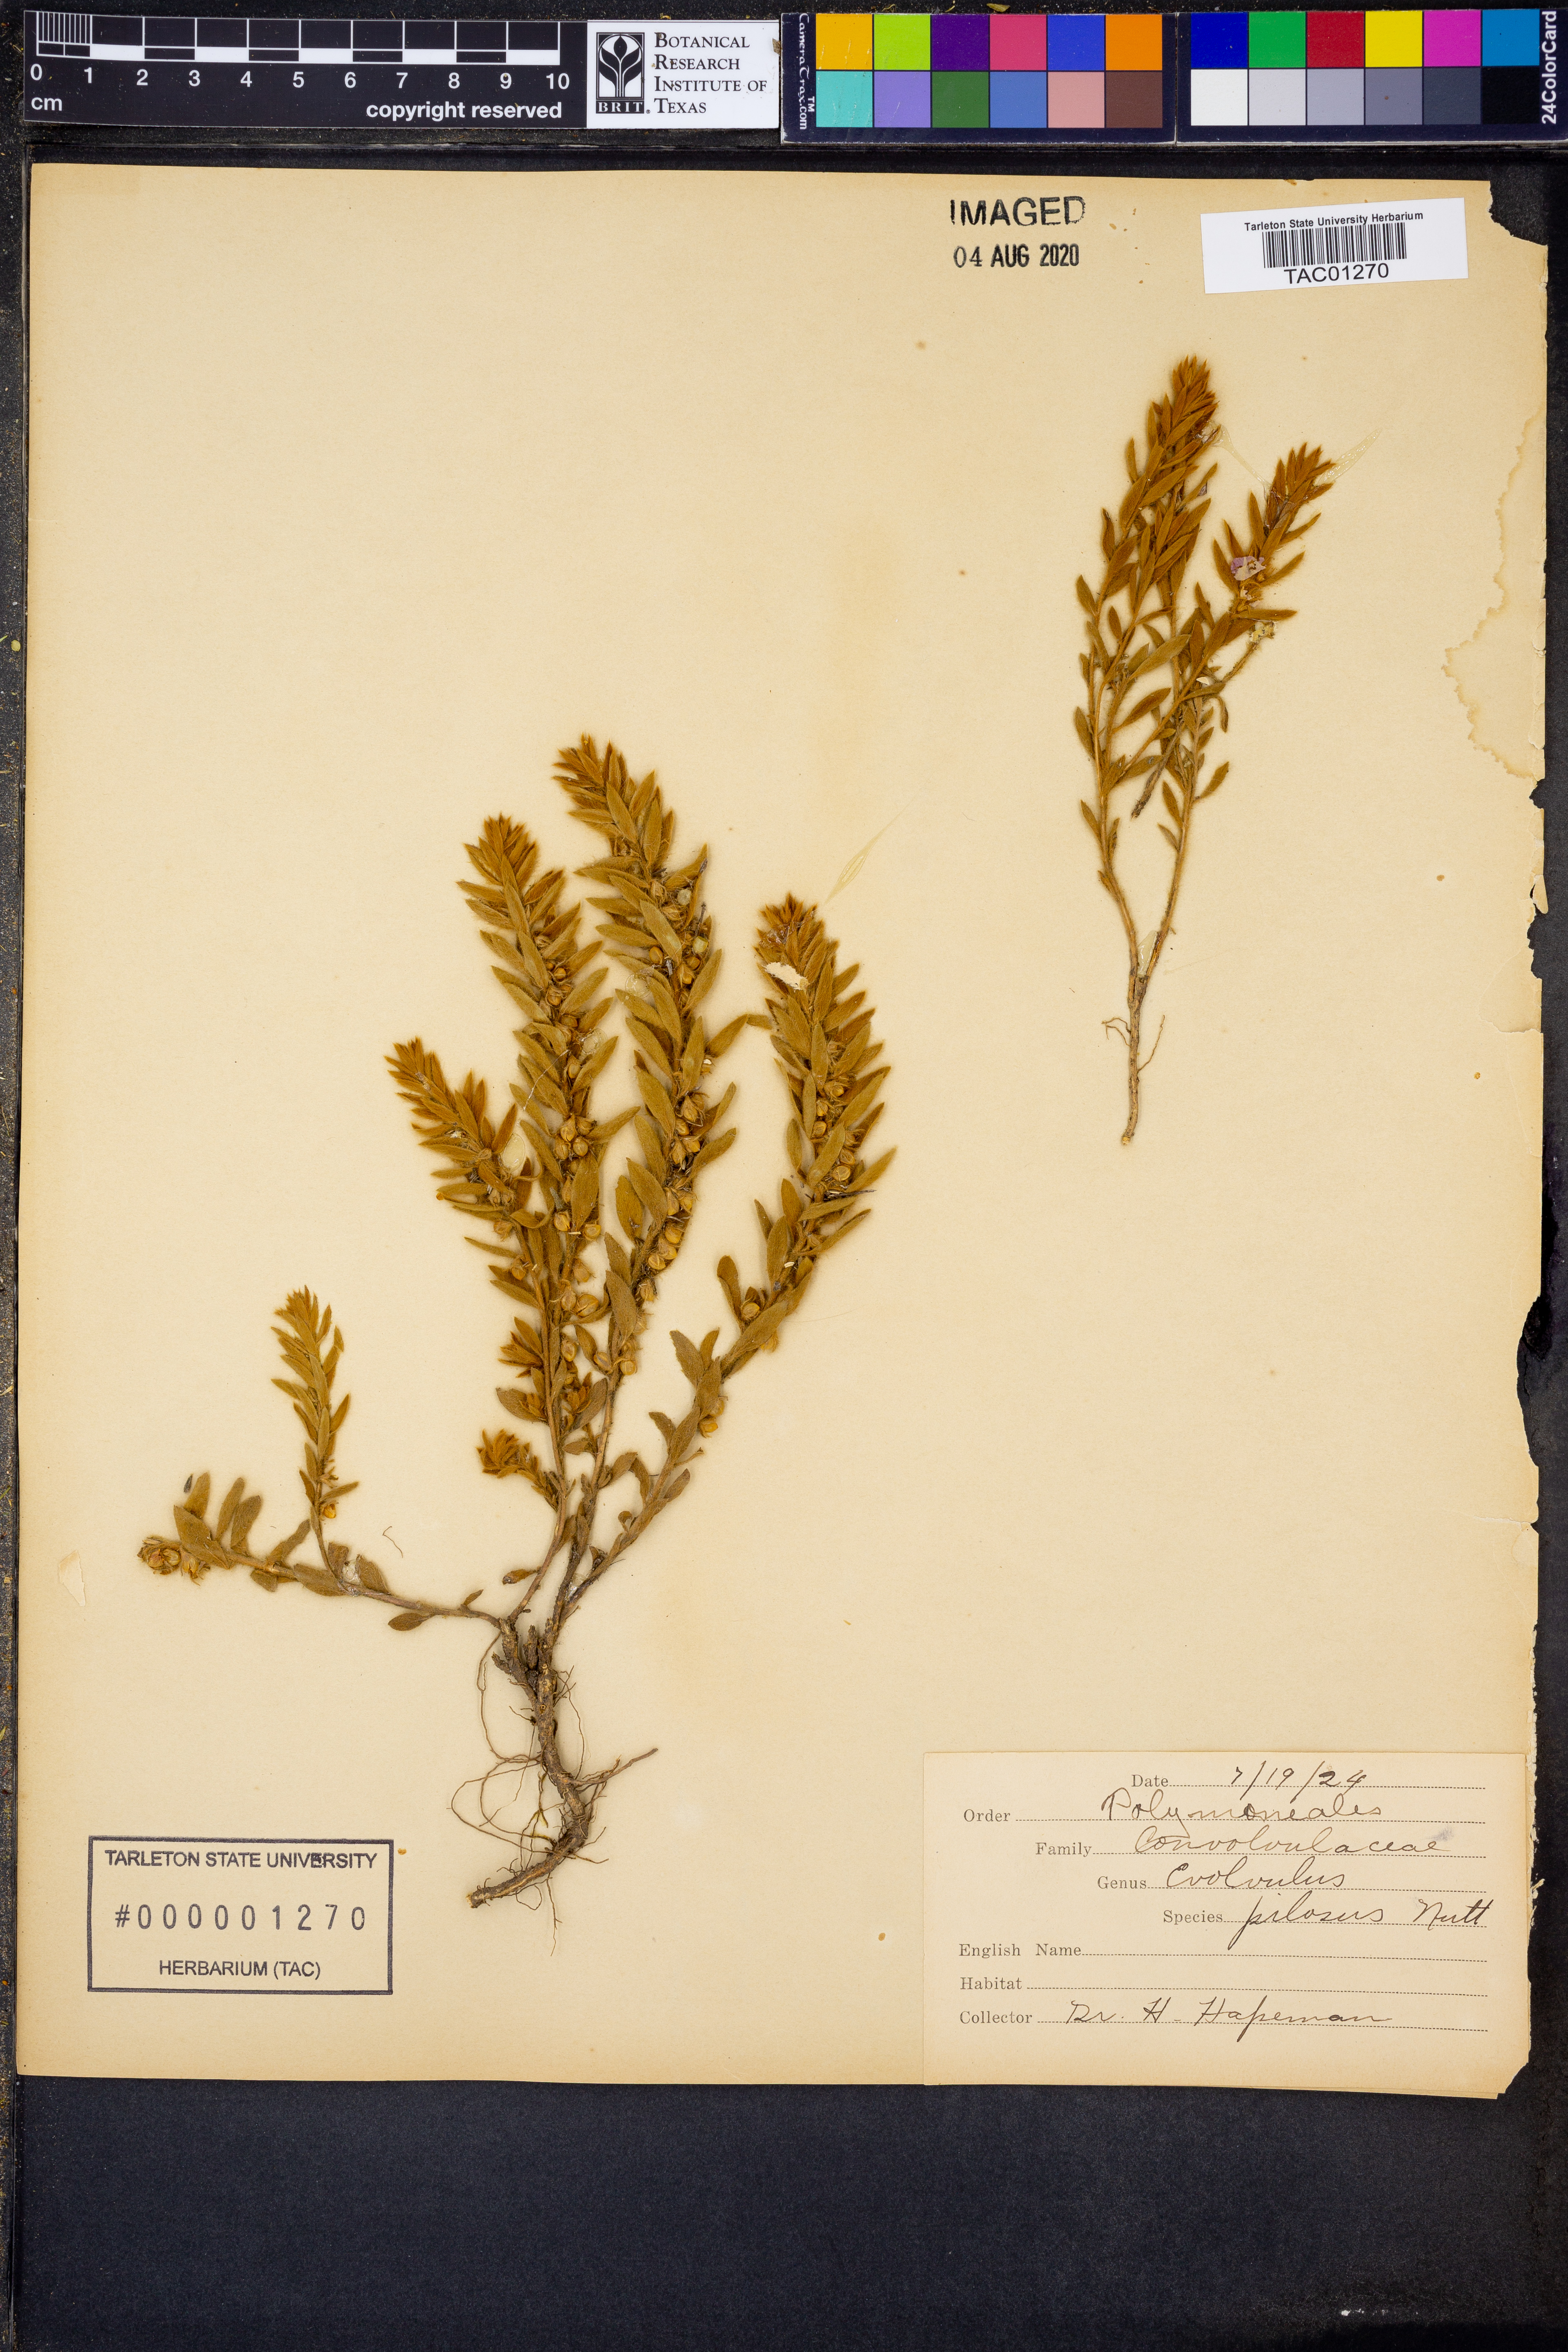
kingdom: Plantae
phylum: Tracheophyta
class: Magnoliopsida
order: Solanales
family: Convolvulaceae
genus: Evolvulus
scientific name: Evolvulus nuttallianus
